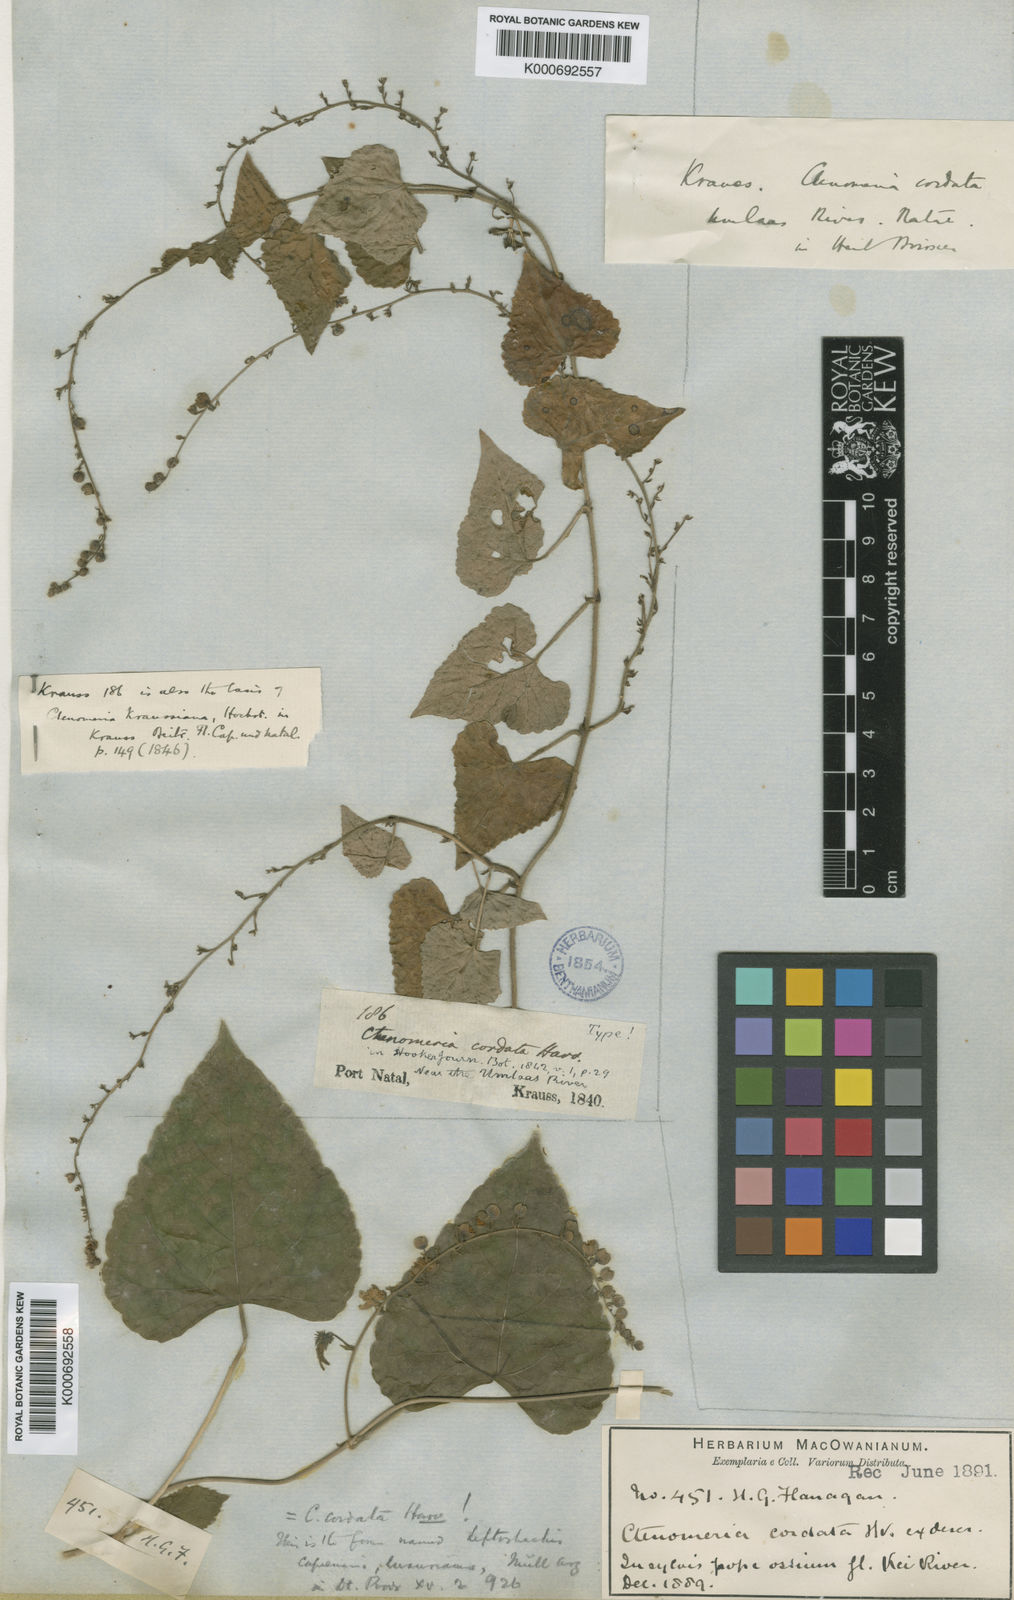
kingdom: Plantae
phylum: Tracheophyta
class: Magnoliopsida
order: Malpighiales
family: Euphorbiaceae
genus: Tragia
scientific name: Tragia capensis
